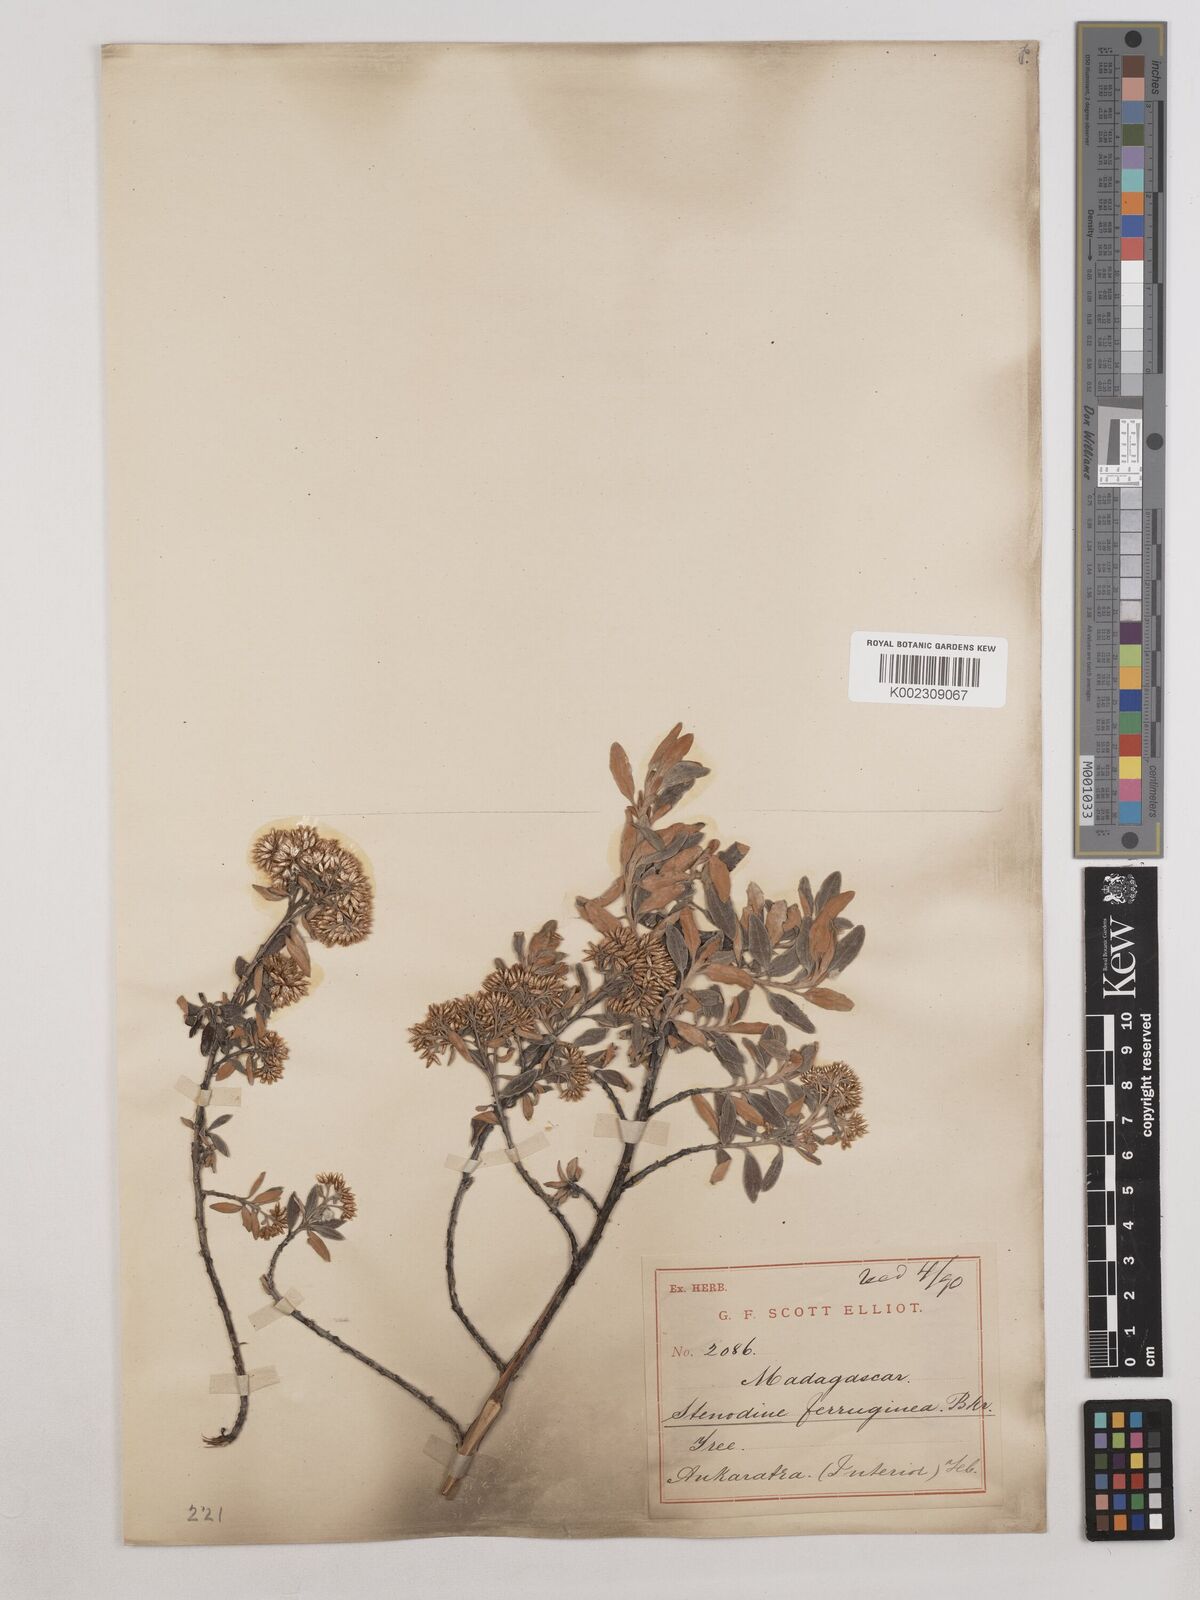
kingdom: Plantae
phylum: Tracheophyta
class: Magnoliopsida
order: Asterales
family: Asteraceae
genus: Helichrysum
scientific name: Helichrysum myriocephalum
